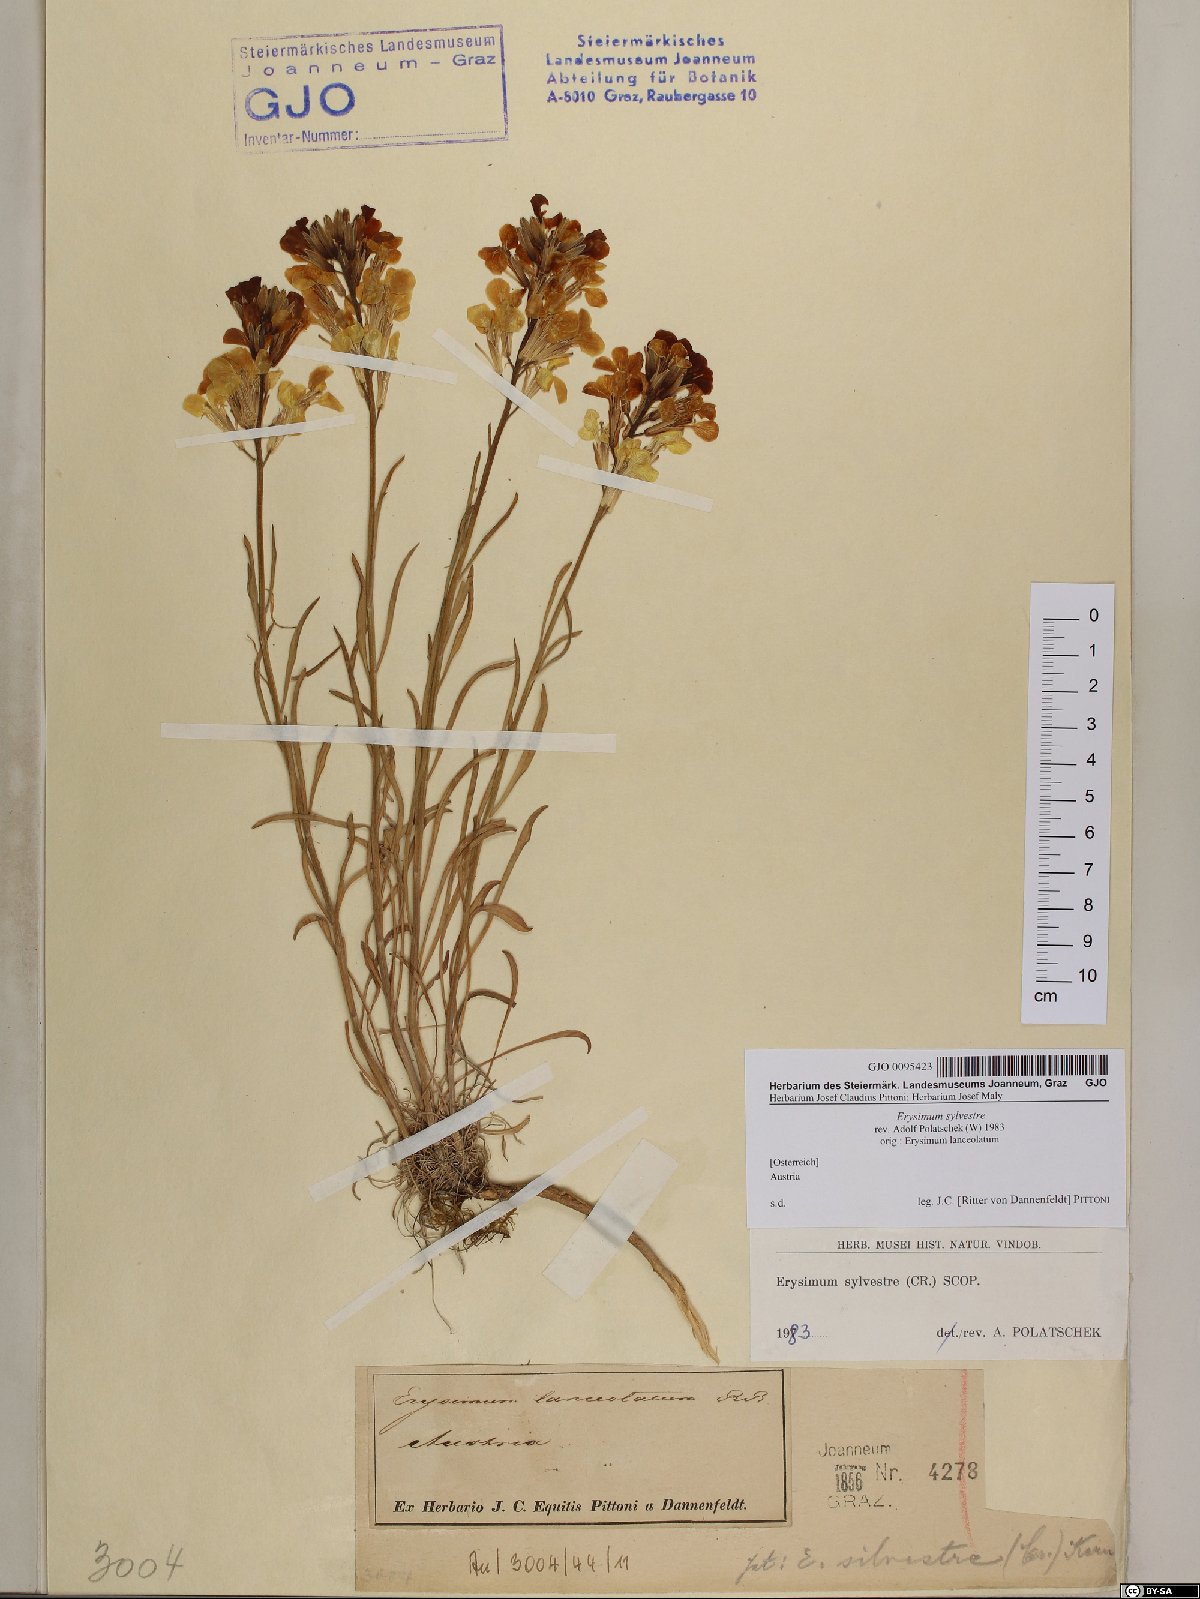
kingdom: Plantae
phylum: Tracheophyta
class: Magnoliopsida
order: Brassicales
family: Brassicaceae
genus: Erysimum
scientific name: Erysimum sylvestre
